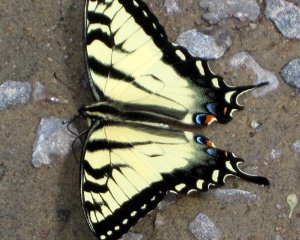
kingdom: Animalia
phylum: Arthropoda
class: Insecta
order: Lepidoptera
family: Papilionidae
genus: Pterourus
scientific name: Pterourus glaucus
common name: Eastern Tiger Swallowtail
